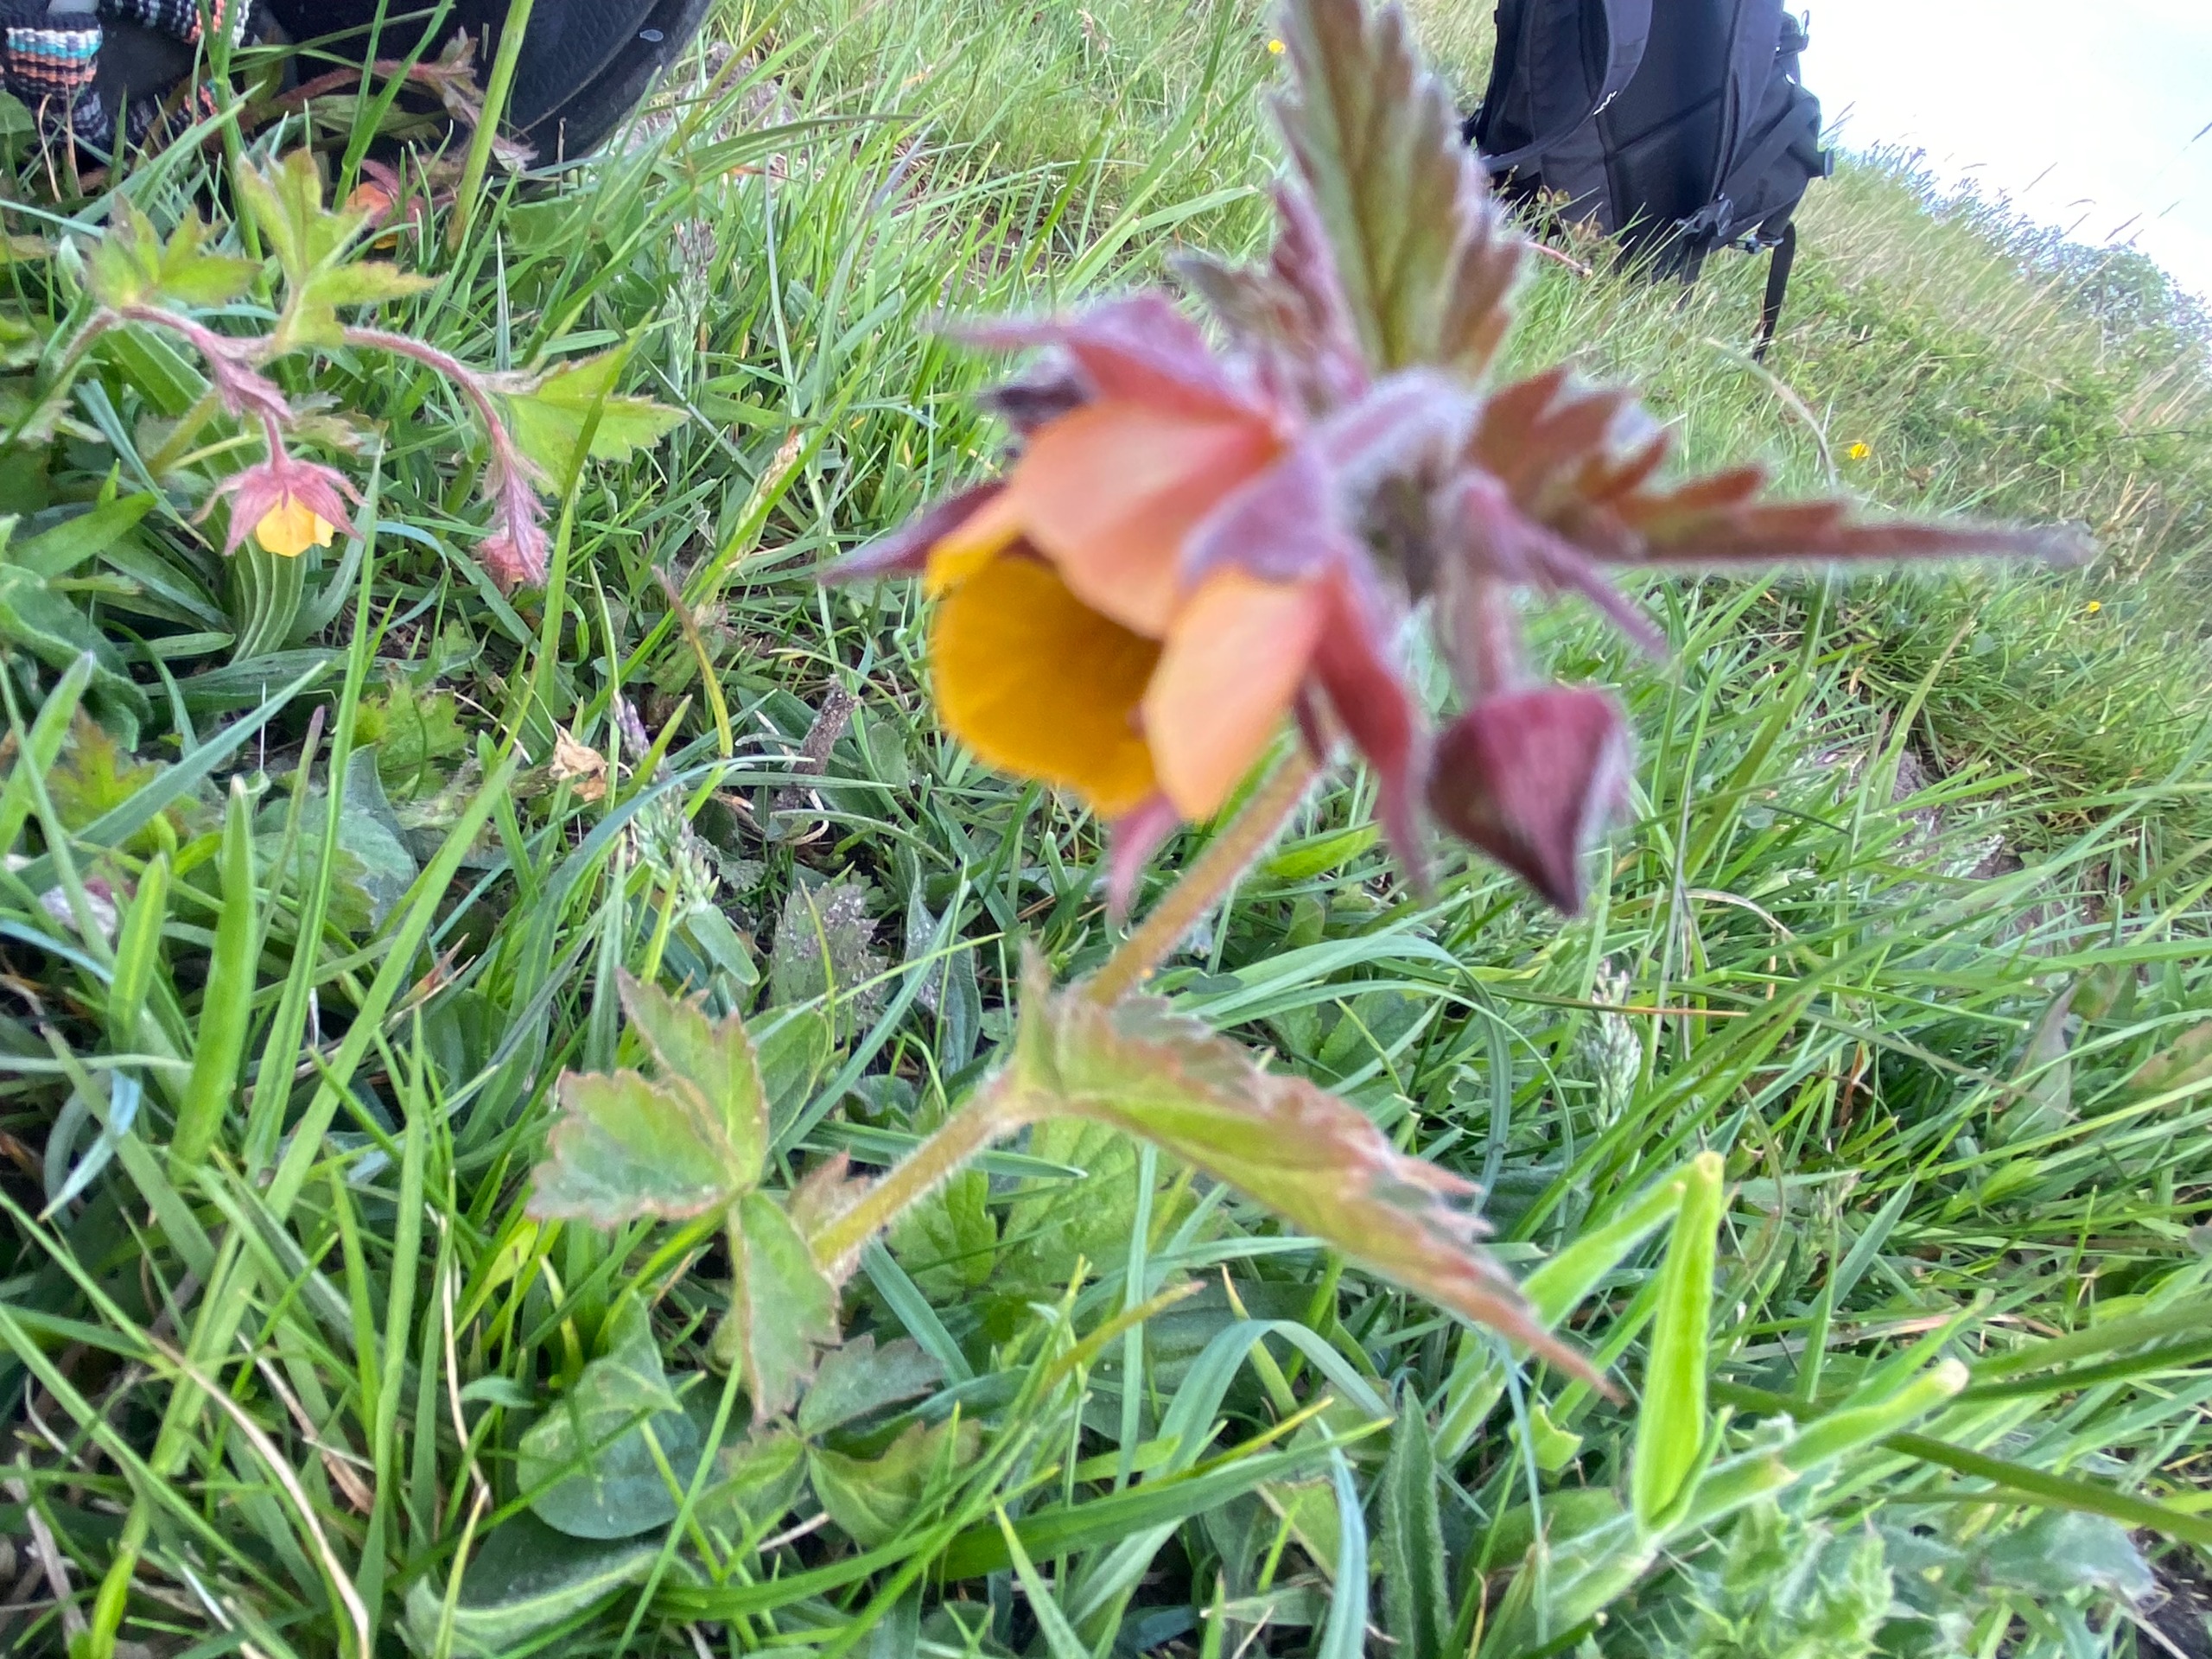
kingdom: Plantae
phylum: Tracheophyta
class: Magnoliopsida
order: Rosales
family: Rosaceae
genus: Geum
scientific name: Geum rivale
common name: Eng-nellikerod
